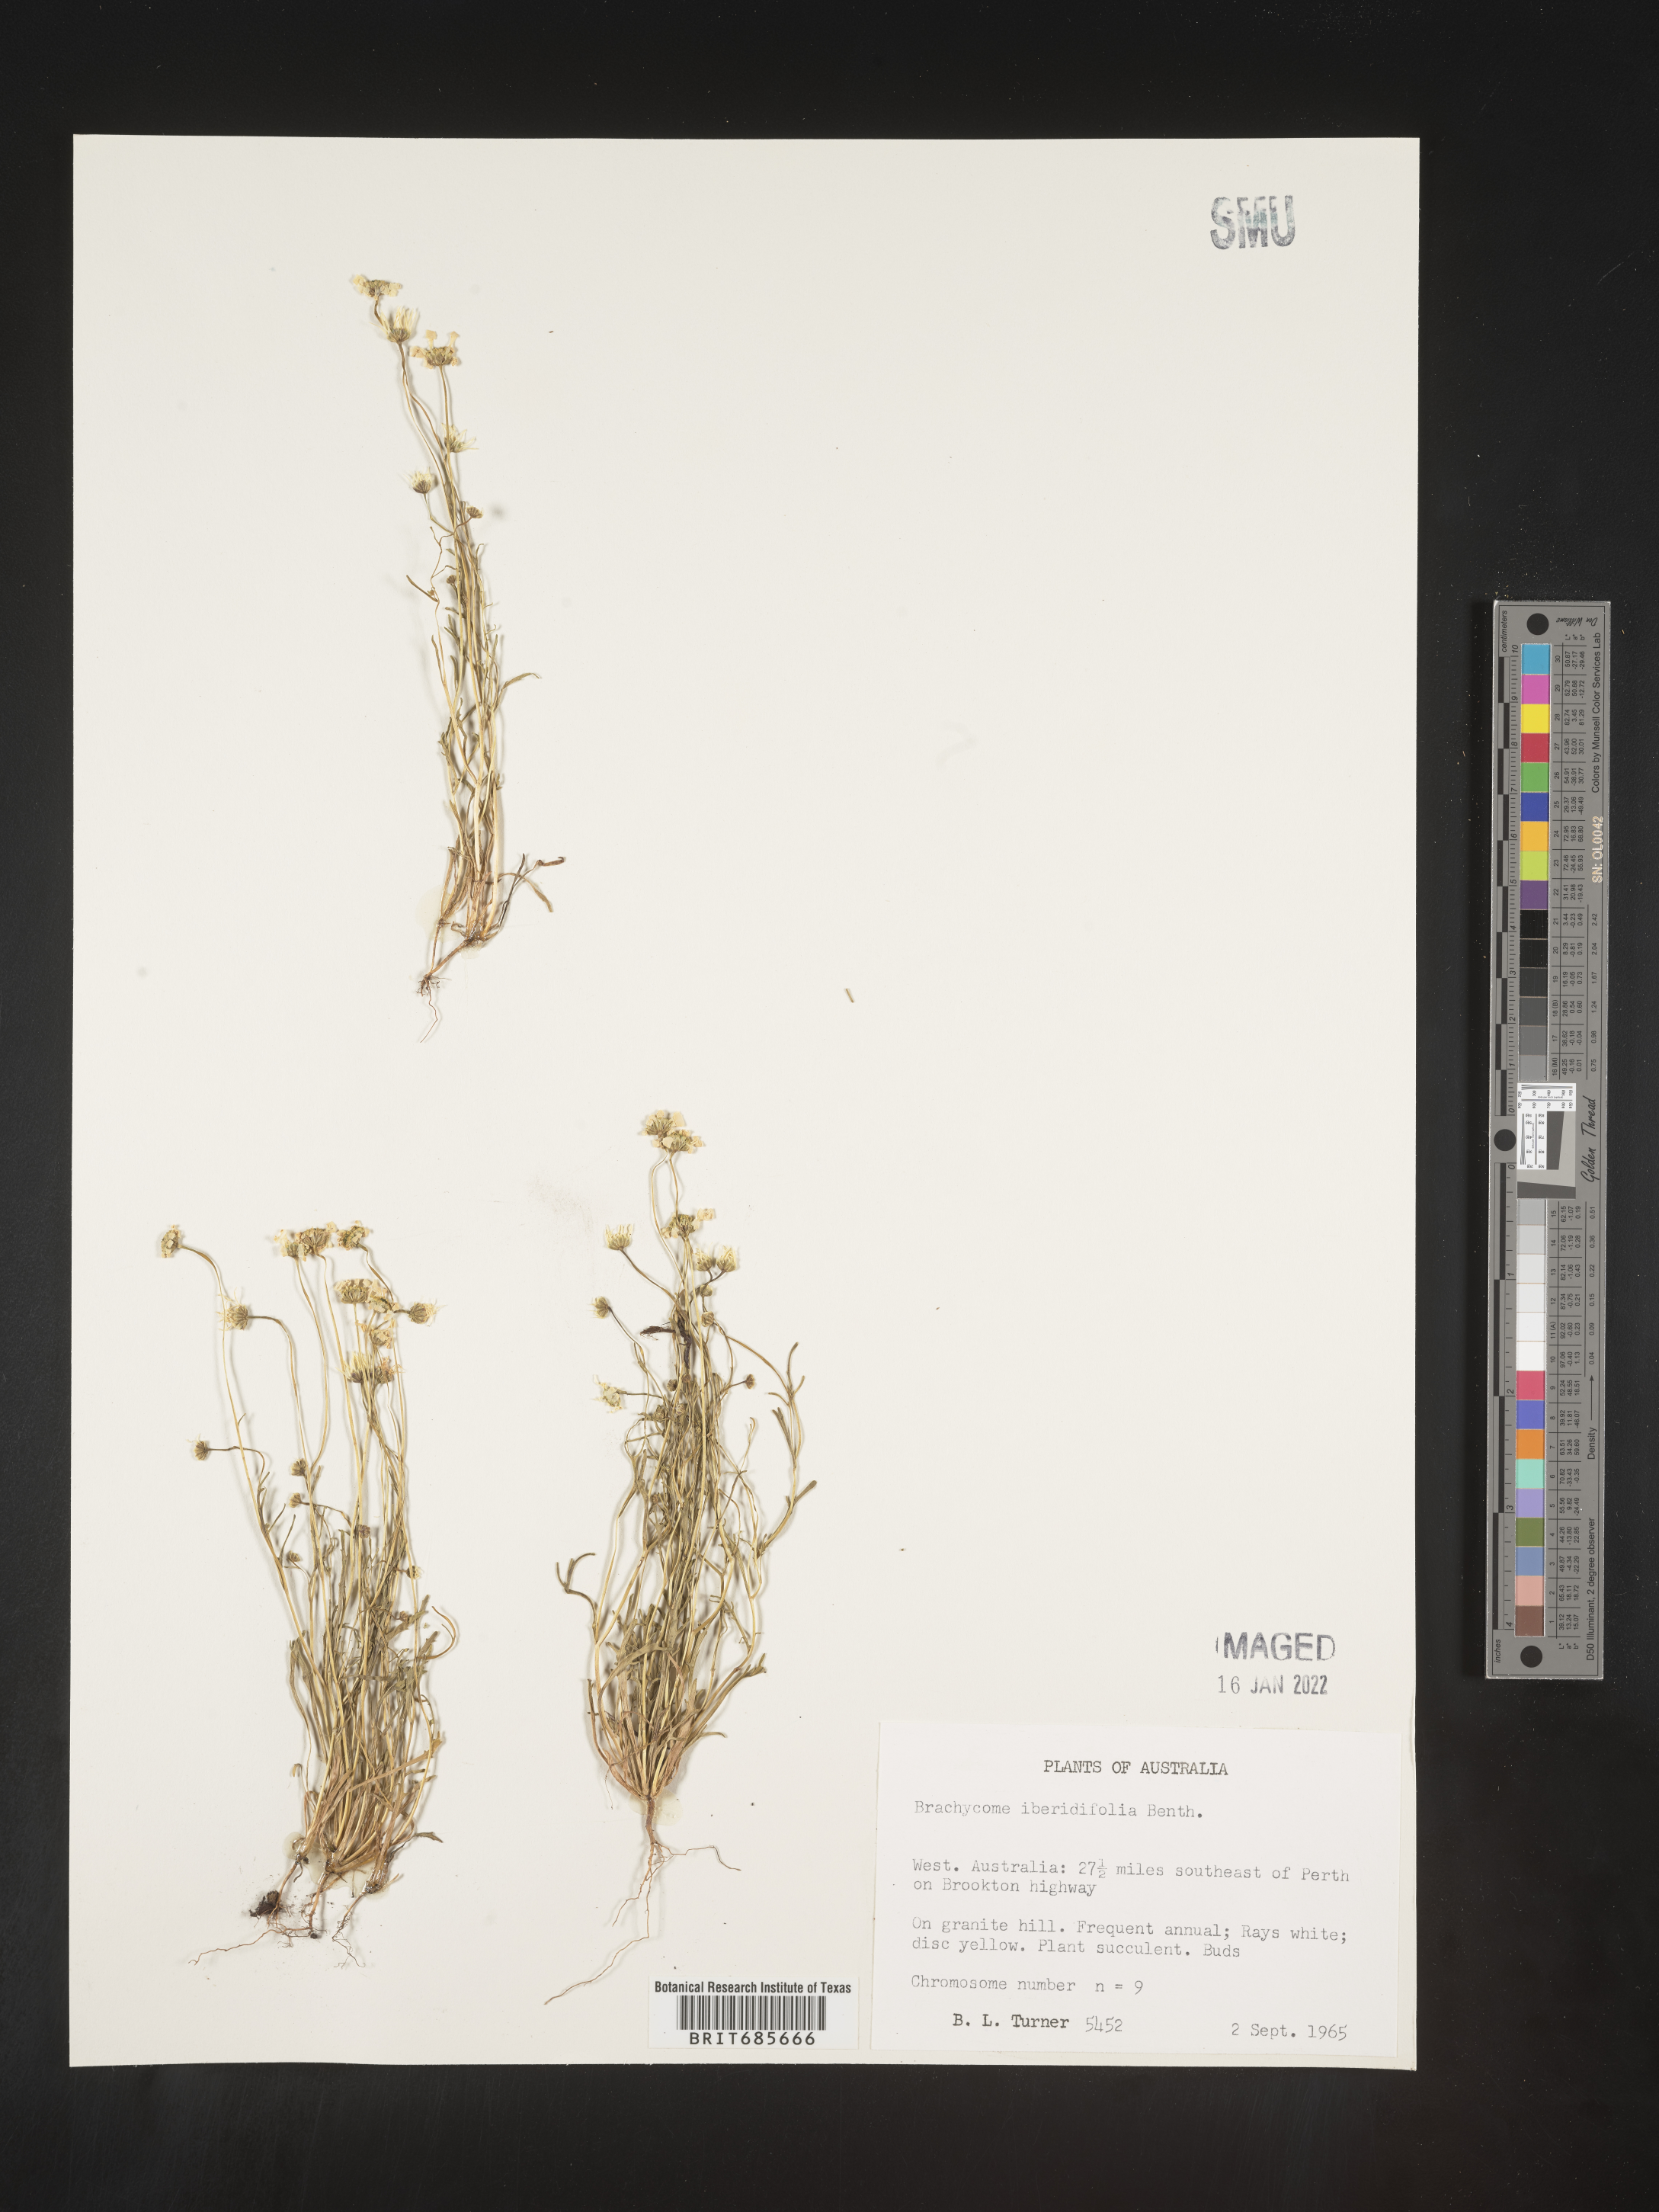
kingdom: Plantae
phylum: Tracheophyta
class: Magnoliopsida
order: Asterales
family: Asteraceae
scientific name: Asteraceae
